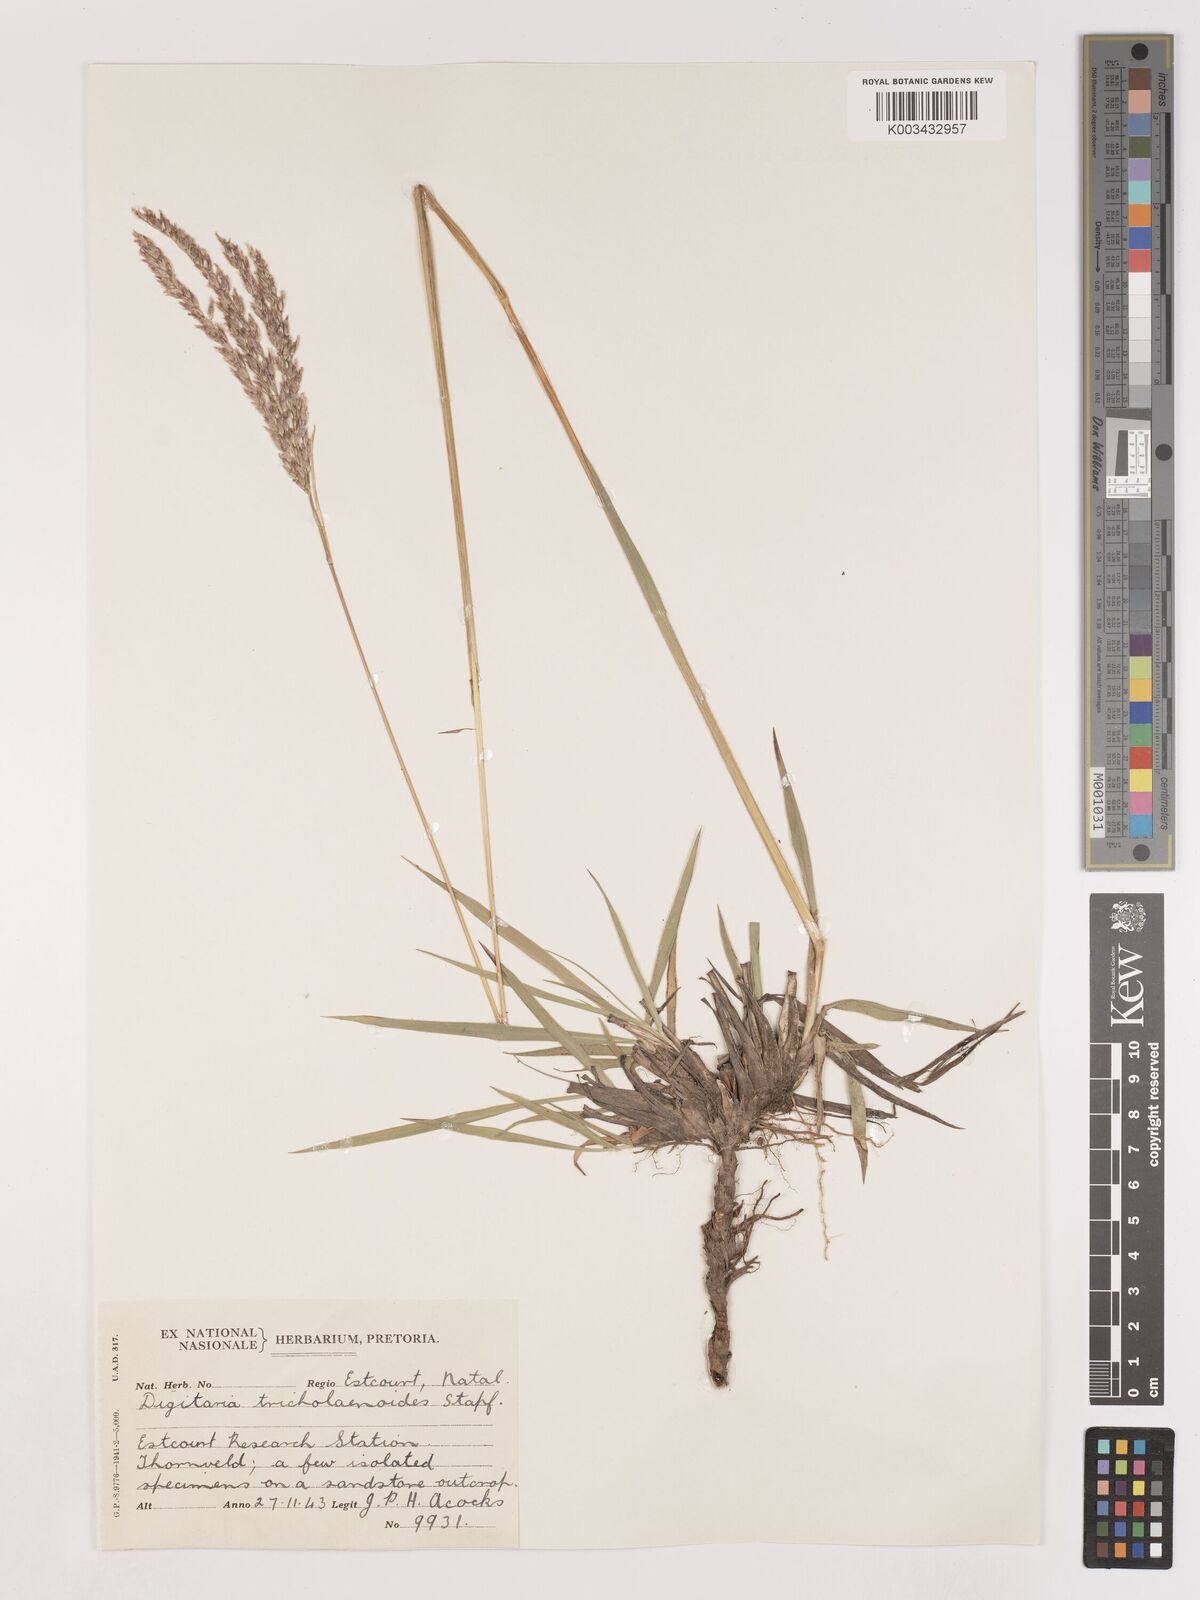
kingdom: Plantae
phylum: Tracheophyta
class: Liliopsida
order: Poales
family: Poaceae
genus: Digitaria
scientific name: Digitaria tricholaenoides
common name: Purple finger grass
